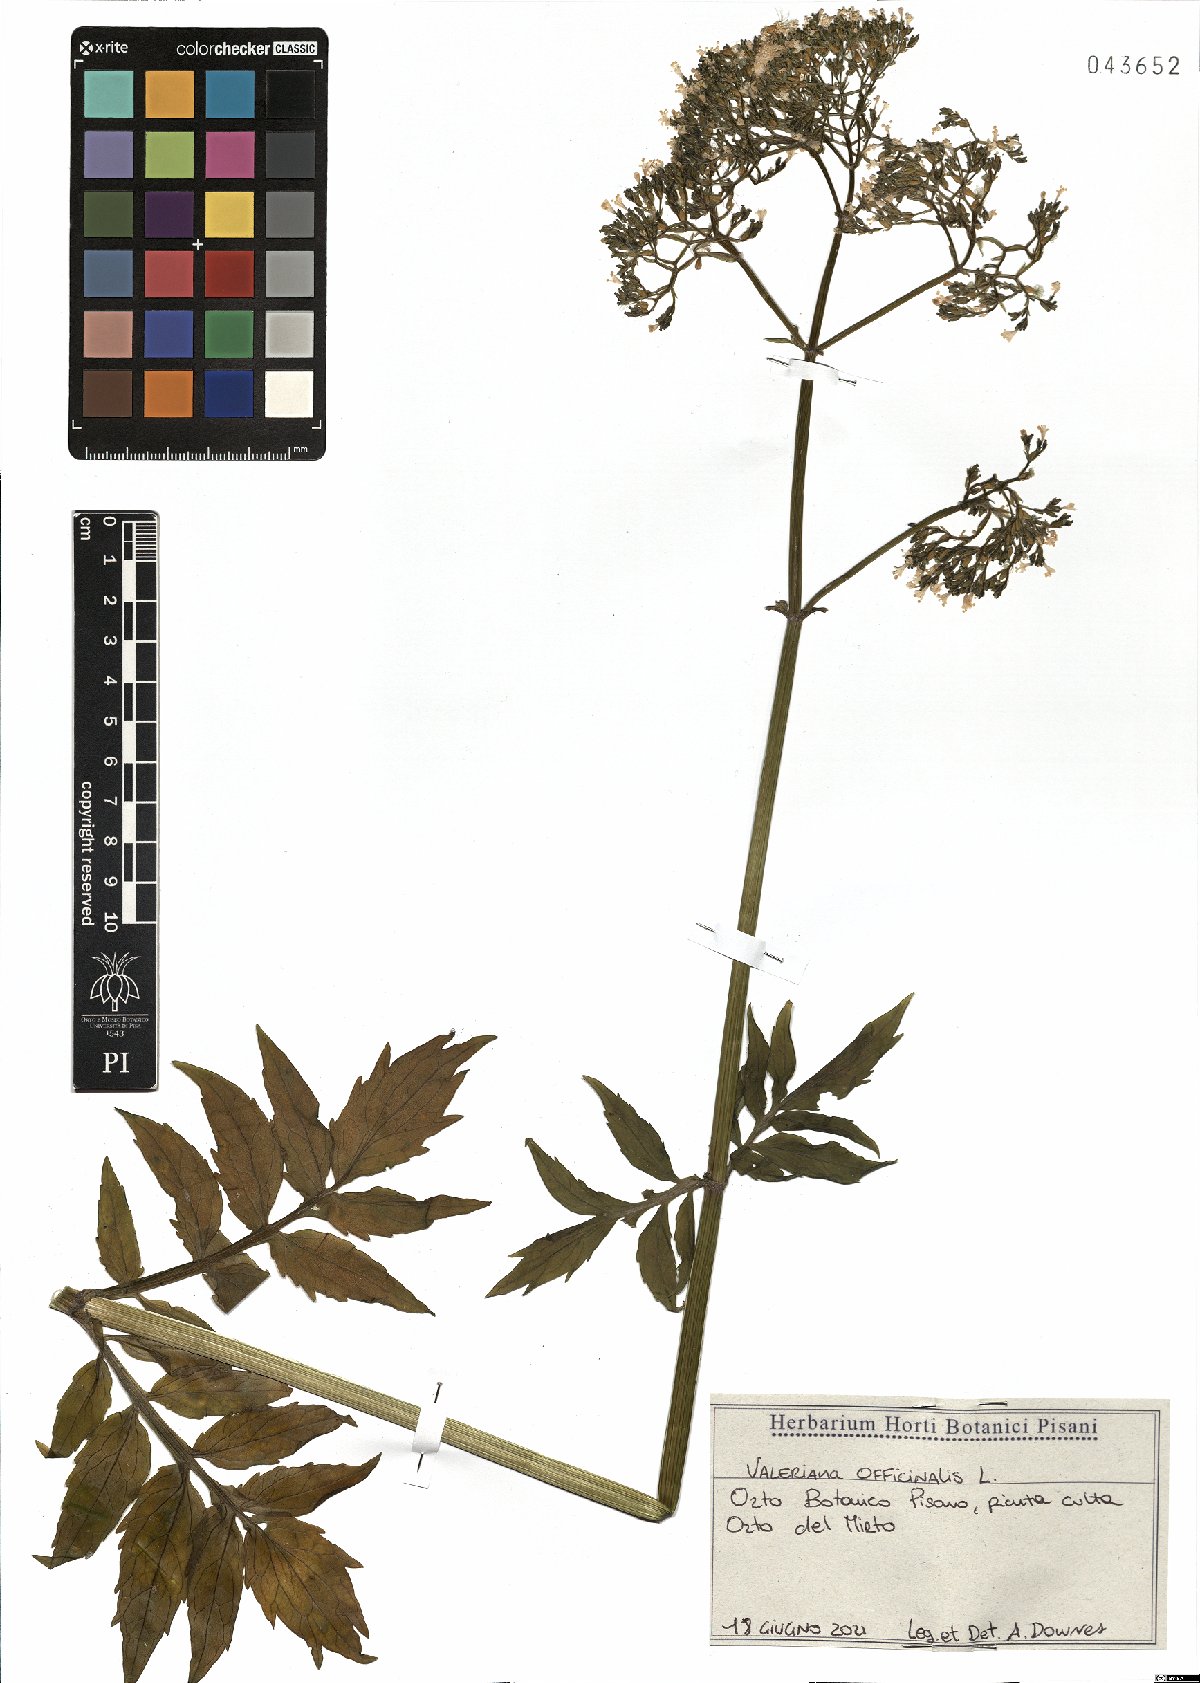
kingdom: Plantae
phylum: Tracheophyta
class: Magnoliopsida
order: Dipsacales
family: Caprifoliaceae
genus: Valeriana
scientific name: Valeriana officinalis
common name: Common valerian
